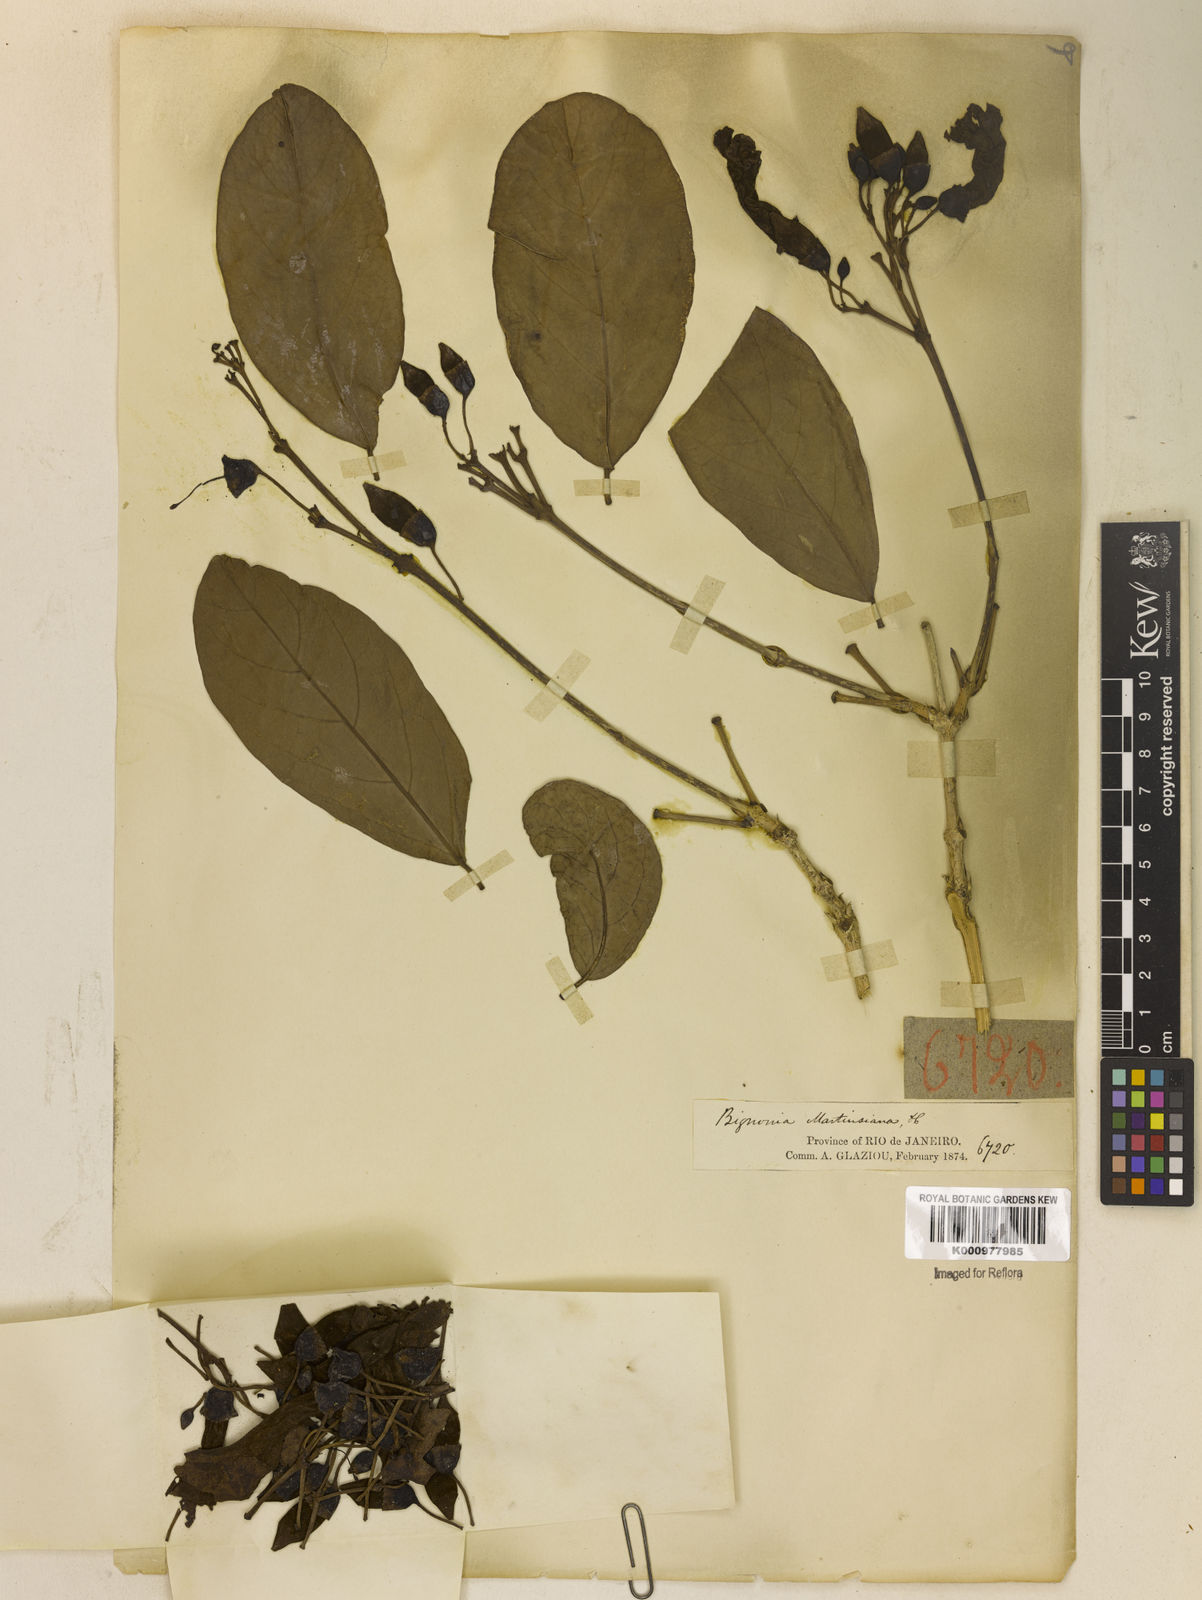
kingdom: Plantae
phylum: Tracheophyta
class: Magnoliopsida
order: Lamiales
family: Bignoniaceae
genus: Tanaecium
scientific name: Tanaecium pyramidatum
